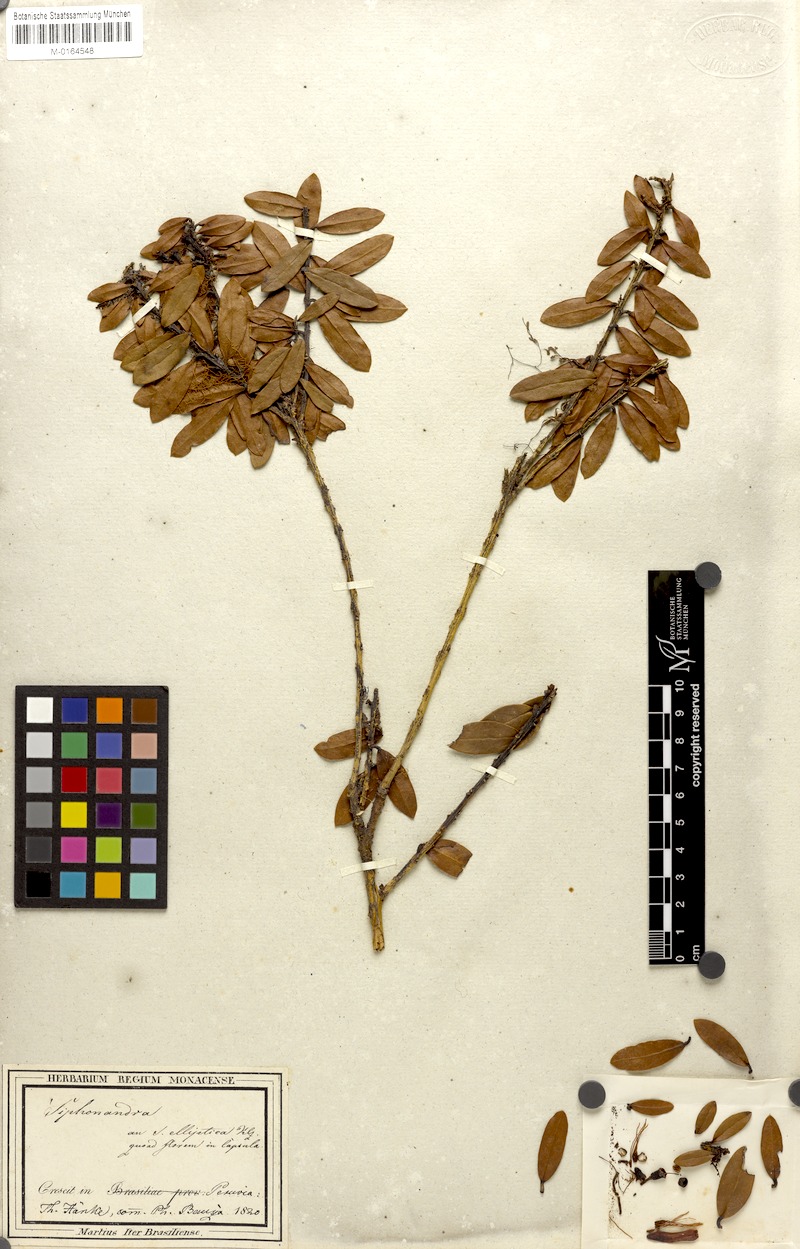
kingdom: Plantae
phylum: Tracheophyta
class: Magnoliopsida
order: Ericales
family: Ericaceae
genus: Siphonandra
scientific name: Siphonandra elliptica
